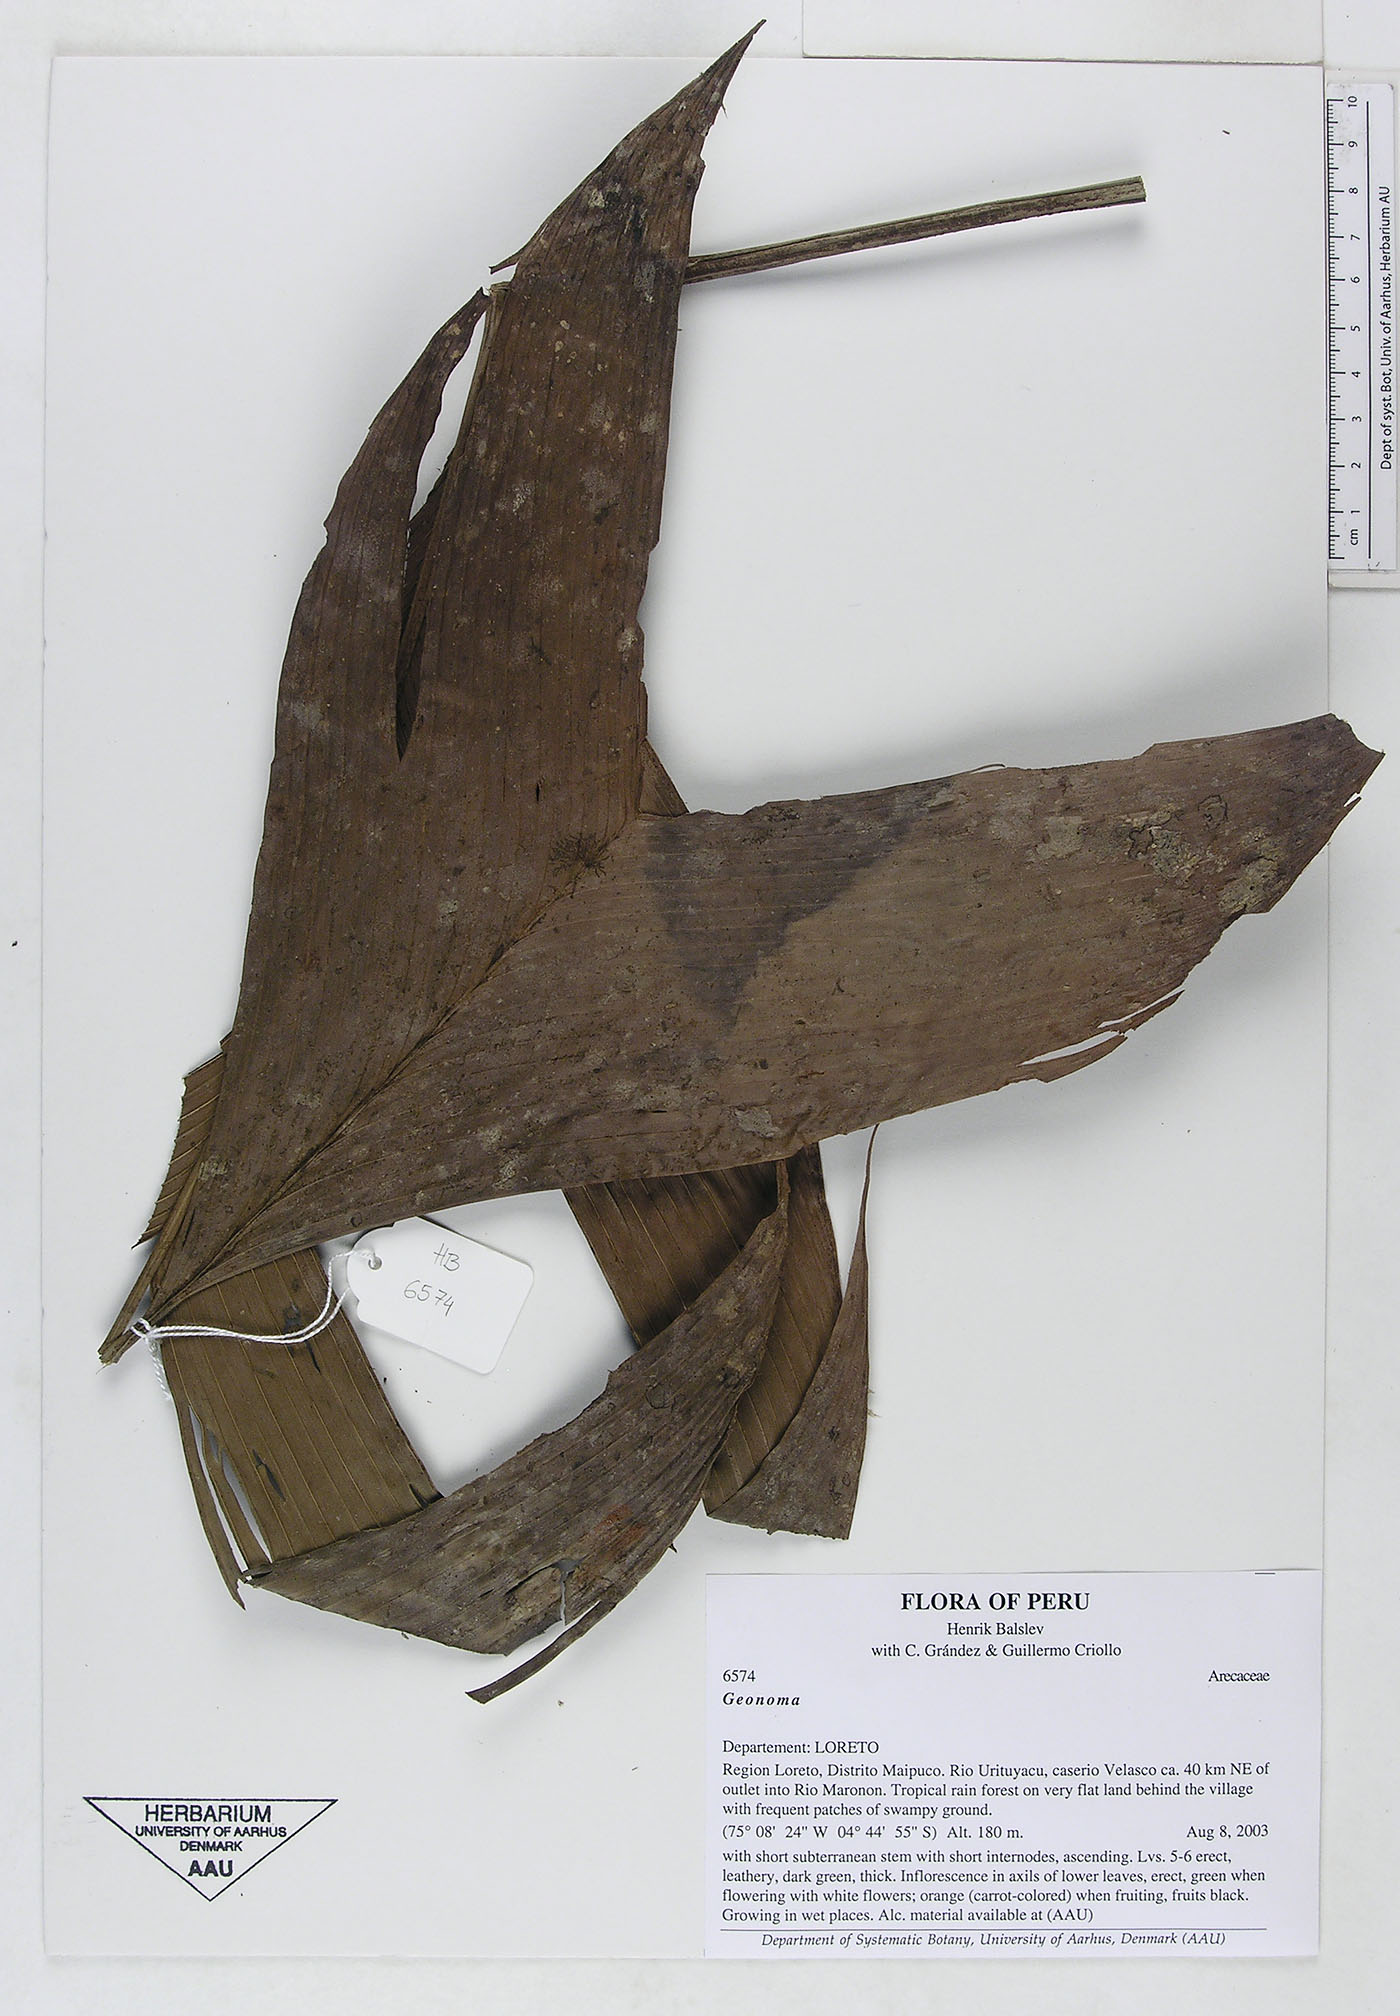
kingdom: Plantae
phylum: Tracheophyta
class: Liliopsida
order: Arecales
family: Arecaceae
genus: Geonoma
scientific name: Geonoma
